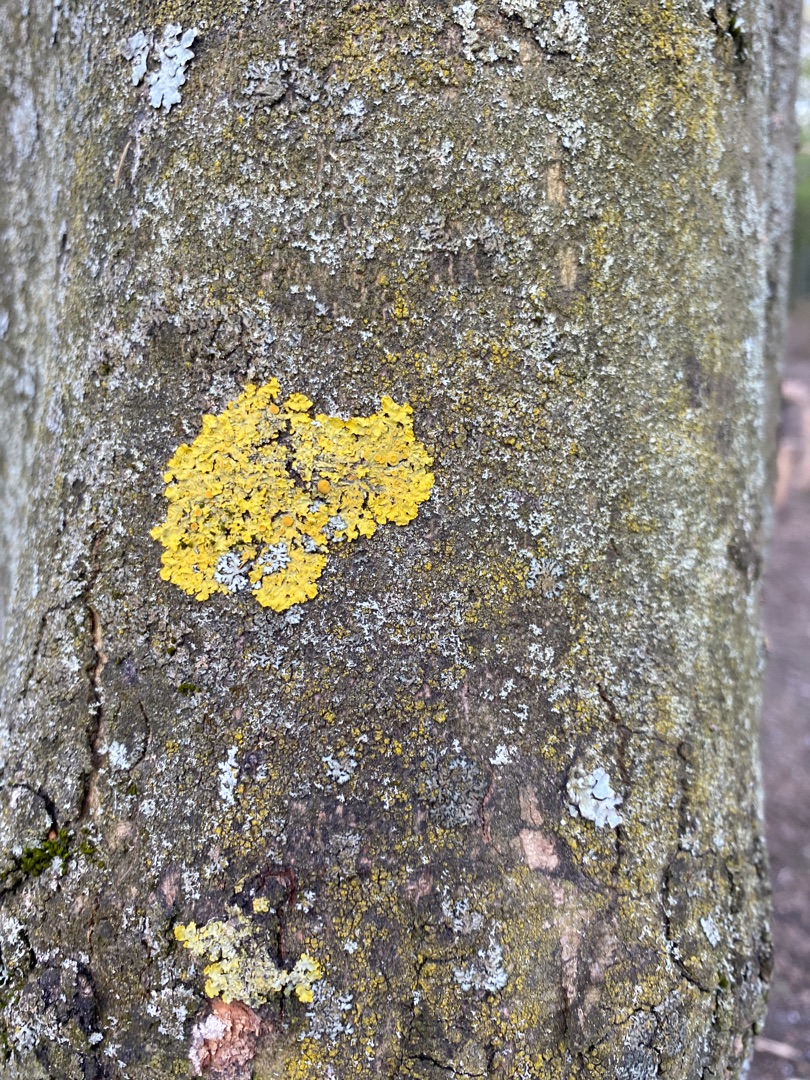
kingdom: Fungi
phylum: Ascomycota
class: Lecanoromycetes
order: Teloschistales
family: Teloschistaceae
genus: Xanthoria
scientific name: Xanthoria parietina
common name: Almindelig væggelav
